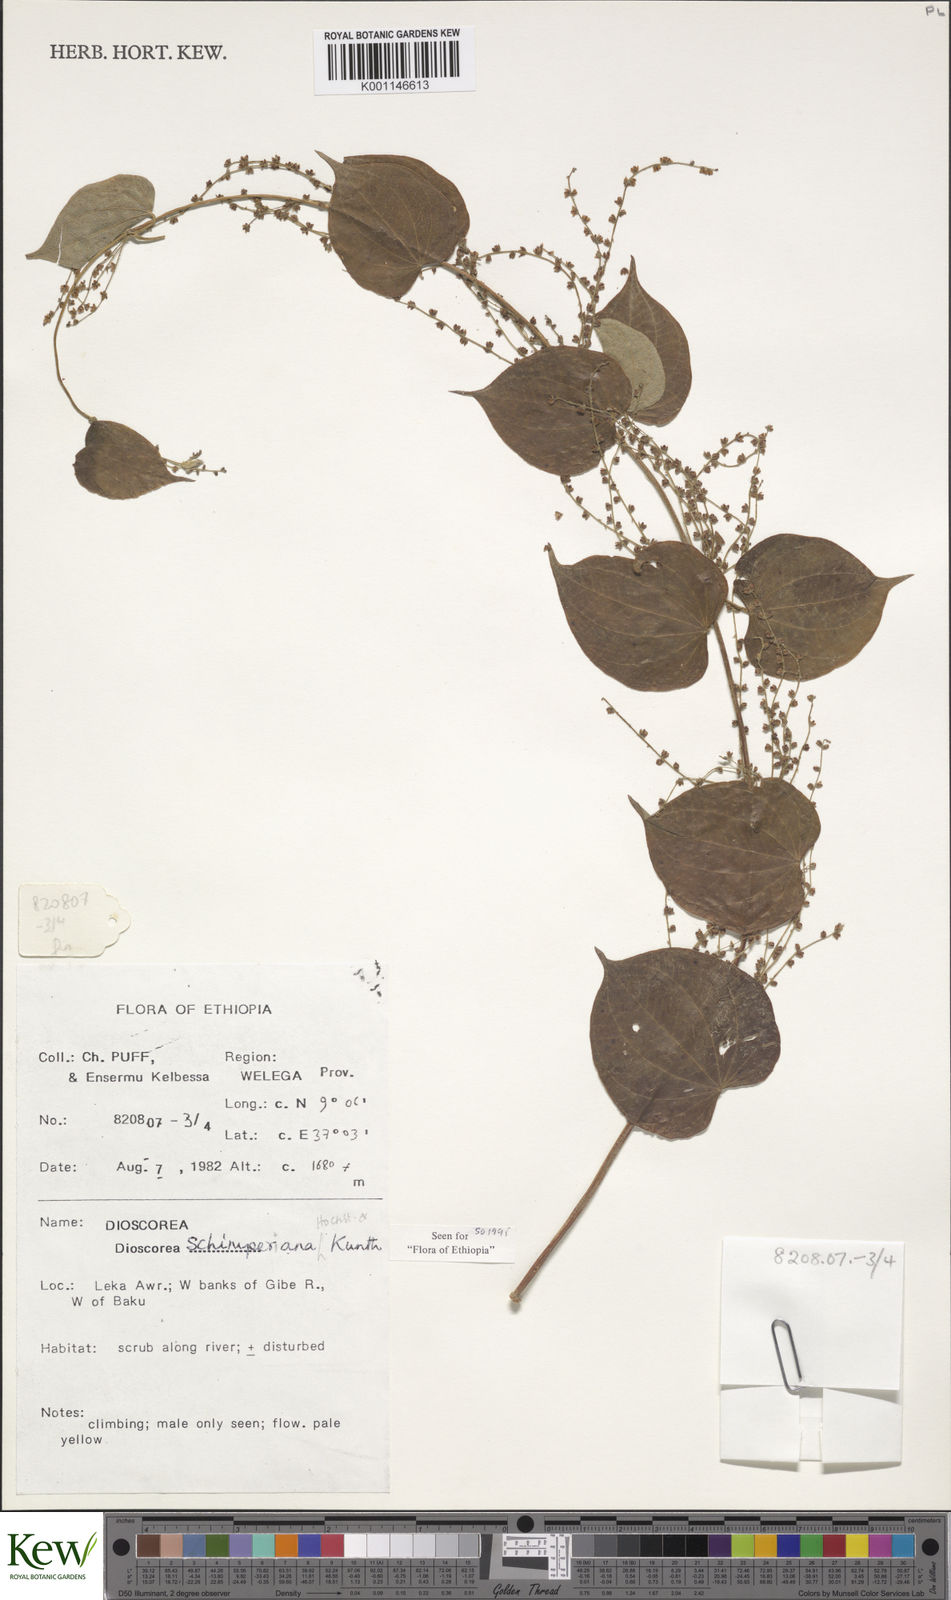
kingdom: Plantae
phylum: Tracheophyta
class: Liliopsida
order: Dioscoreales
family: Dioscoreaceae
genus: Dioscorea
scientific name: Dioscorea schimperiana
